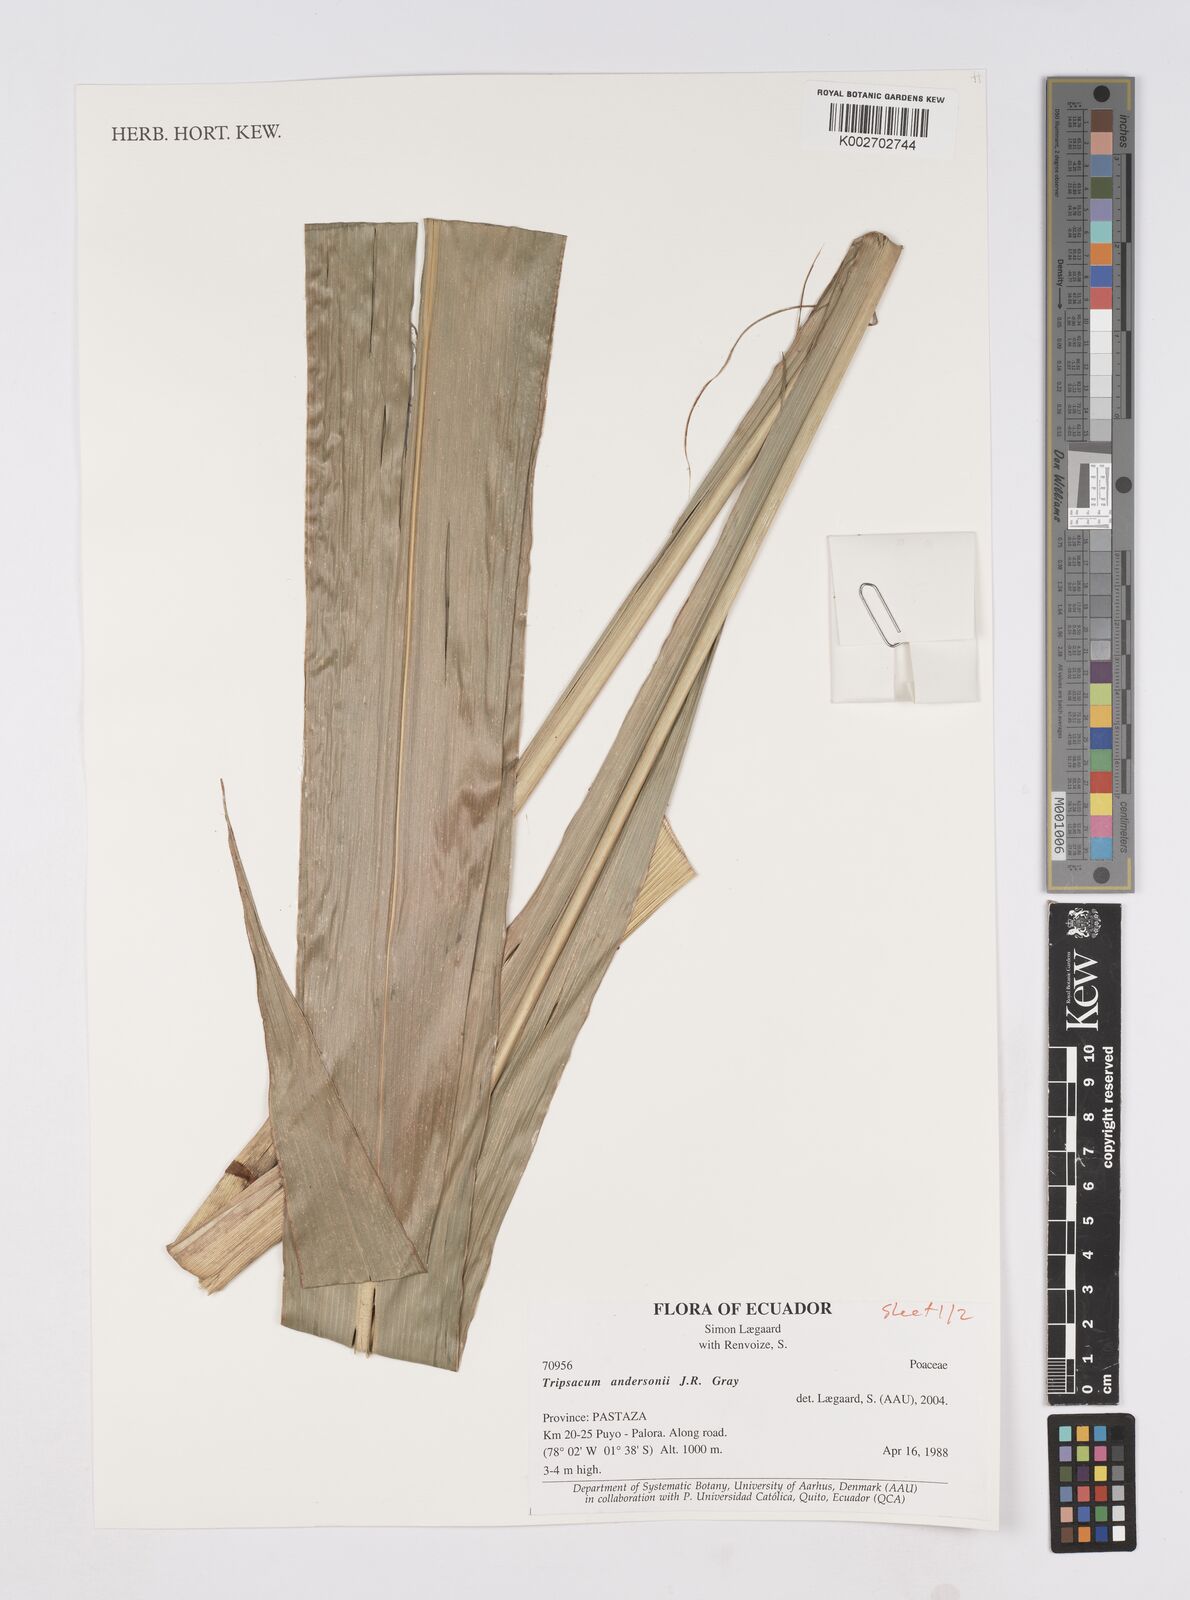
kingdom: Plantae
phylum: Tracheophyta
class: Liliopsida
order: Poales
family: Poaceae
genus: Tripsacum
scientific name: Tripsacum andersonii
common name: Guatemalan grass
